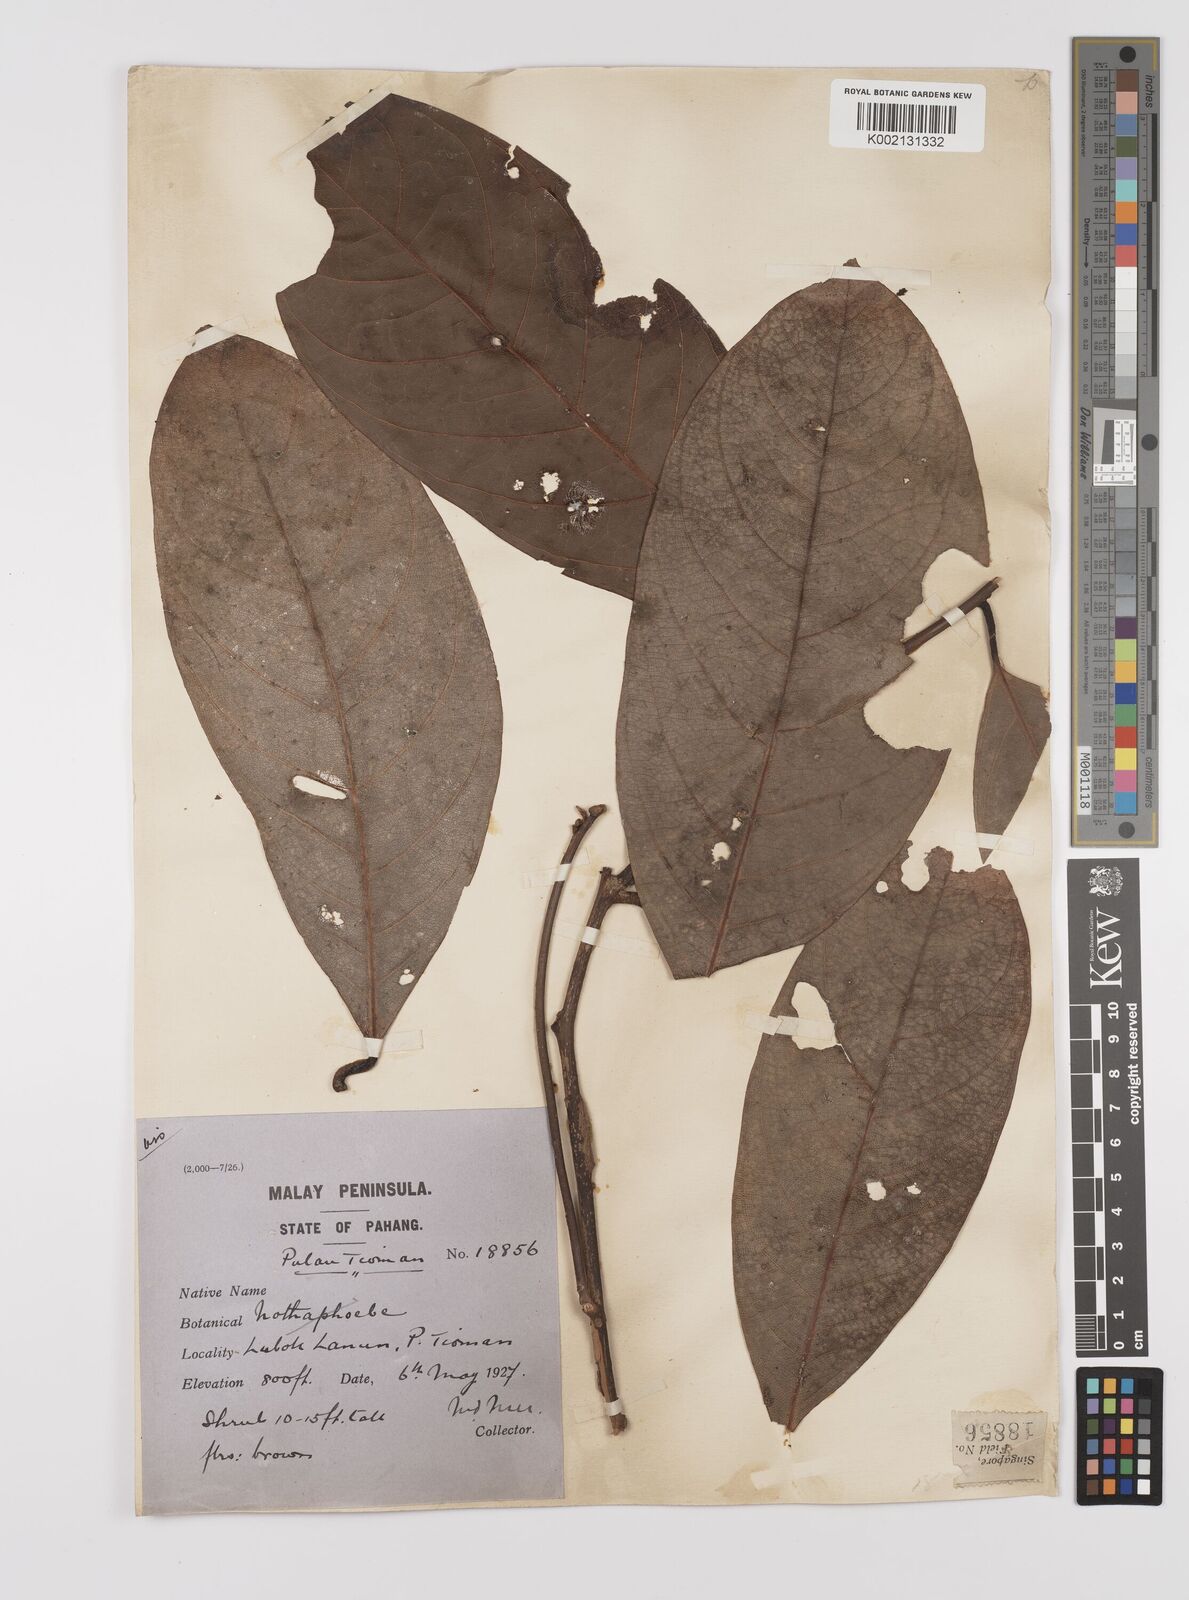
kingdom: Plantae
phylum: Tracheophyta
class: Magnoliopsida
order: Laurales
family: Lauraceae
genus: Endiandra
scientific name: Endiandra praeclara
